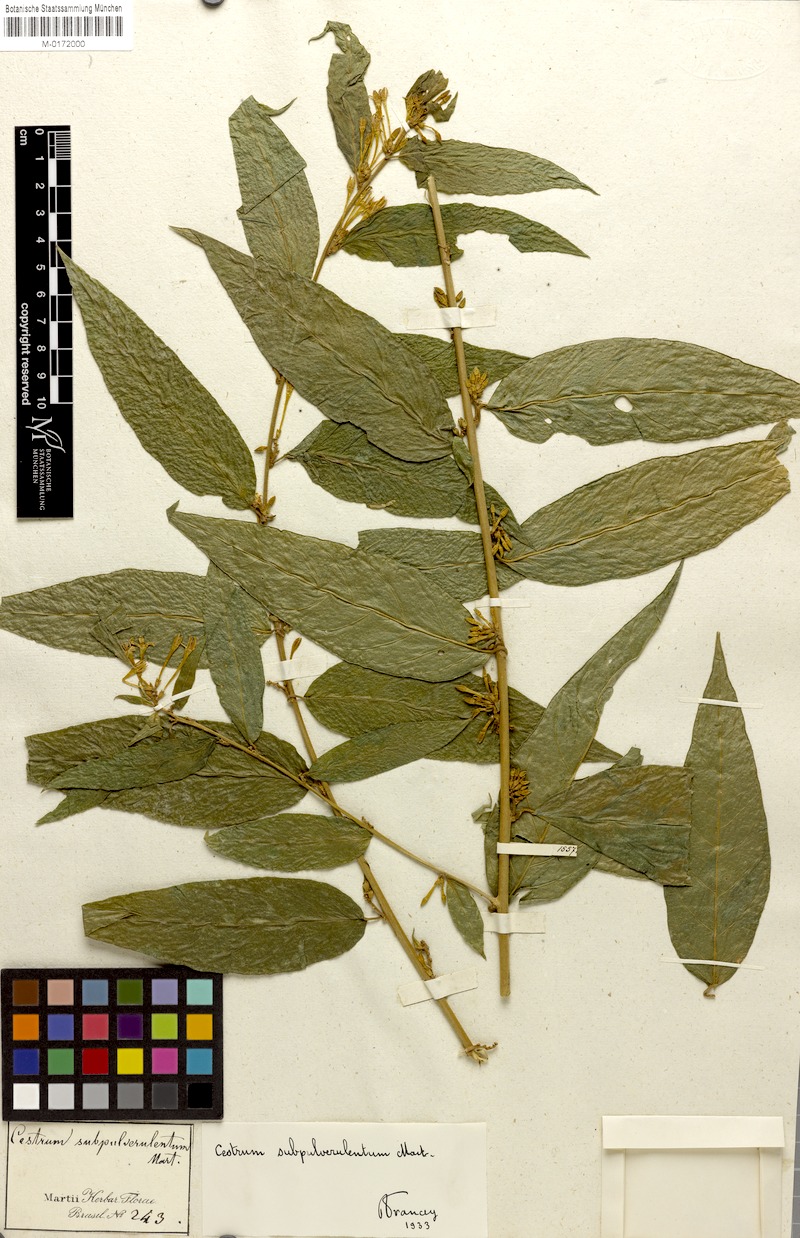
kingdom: Plantae
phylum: Tracheophyta
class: Magnoliopsida
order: Solanales
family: Solanaceae
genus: Cestrum
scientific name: Cestrum subpulverulentum
